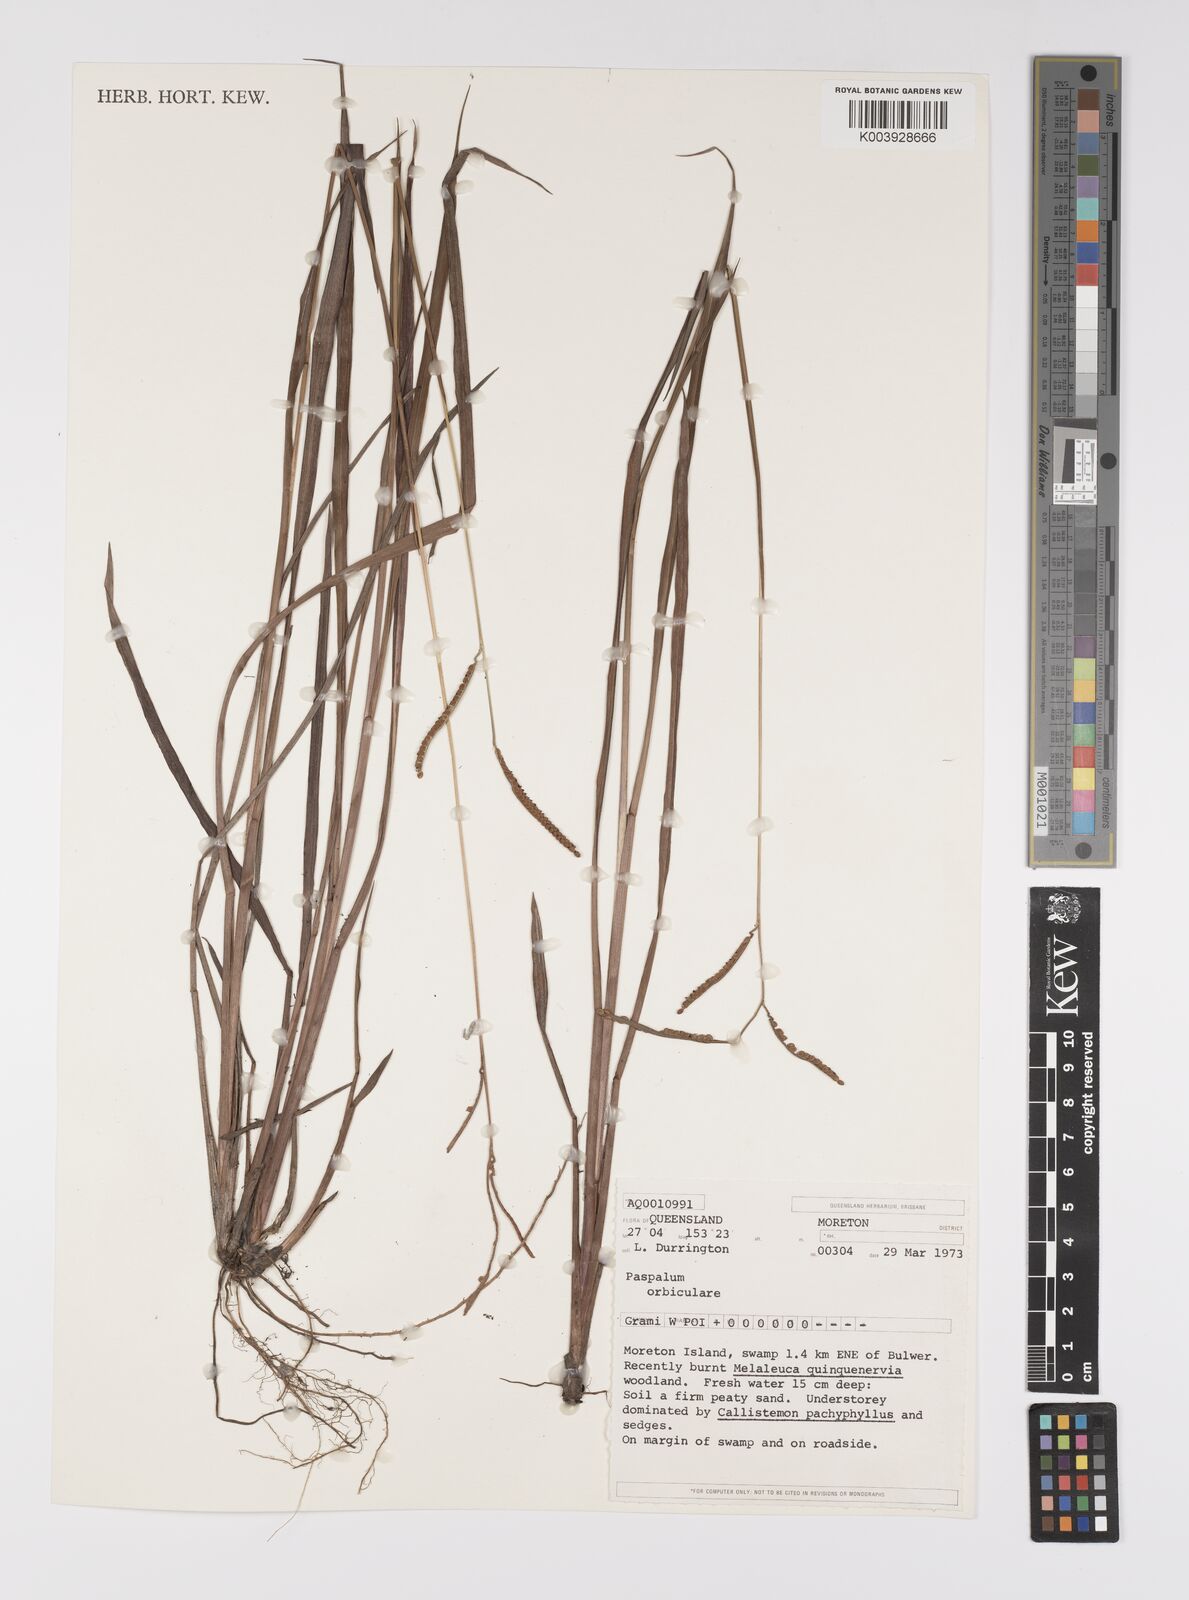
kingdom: Plantae
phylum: Tracheophyta
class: Liliopsida
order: Poales
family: Poaceae
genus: Paspalum
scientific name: Paspalum scrobiculatum
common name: Kodo millet
